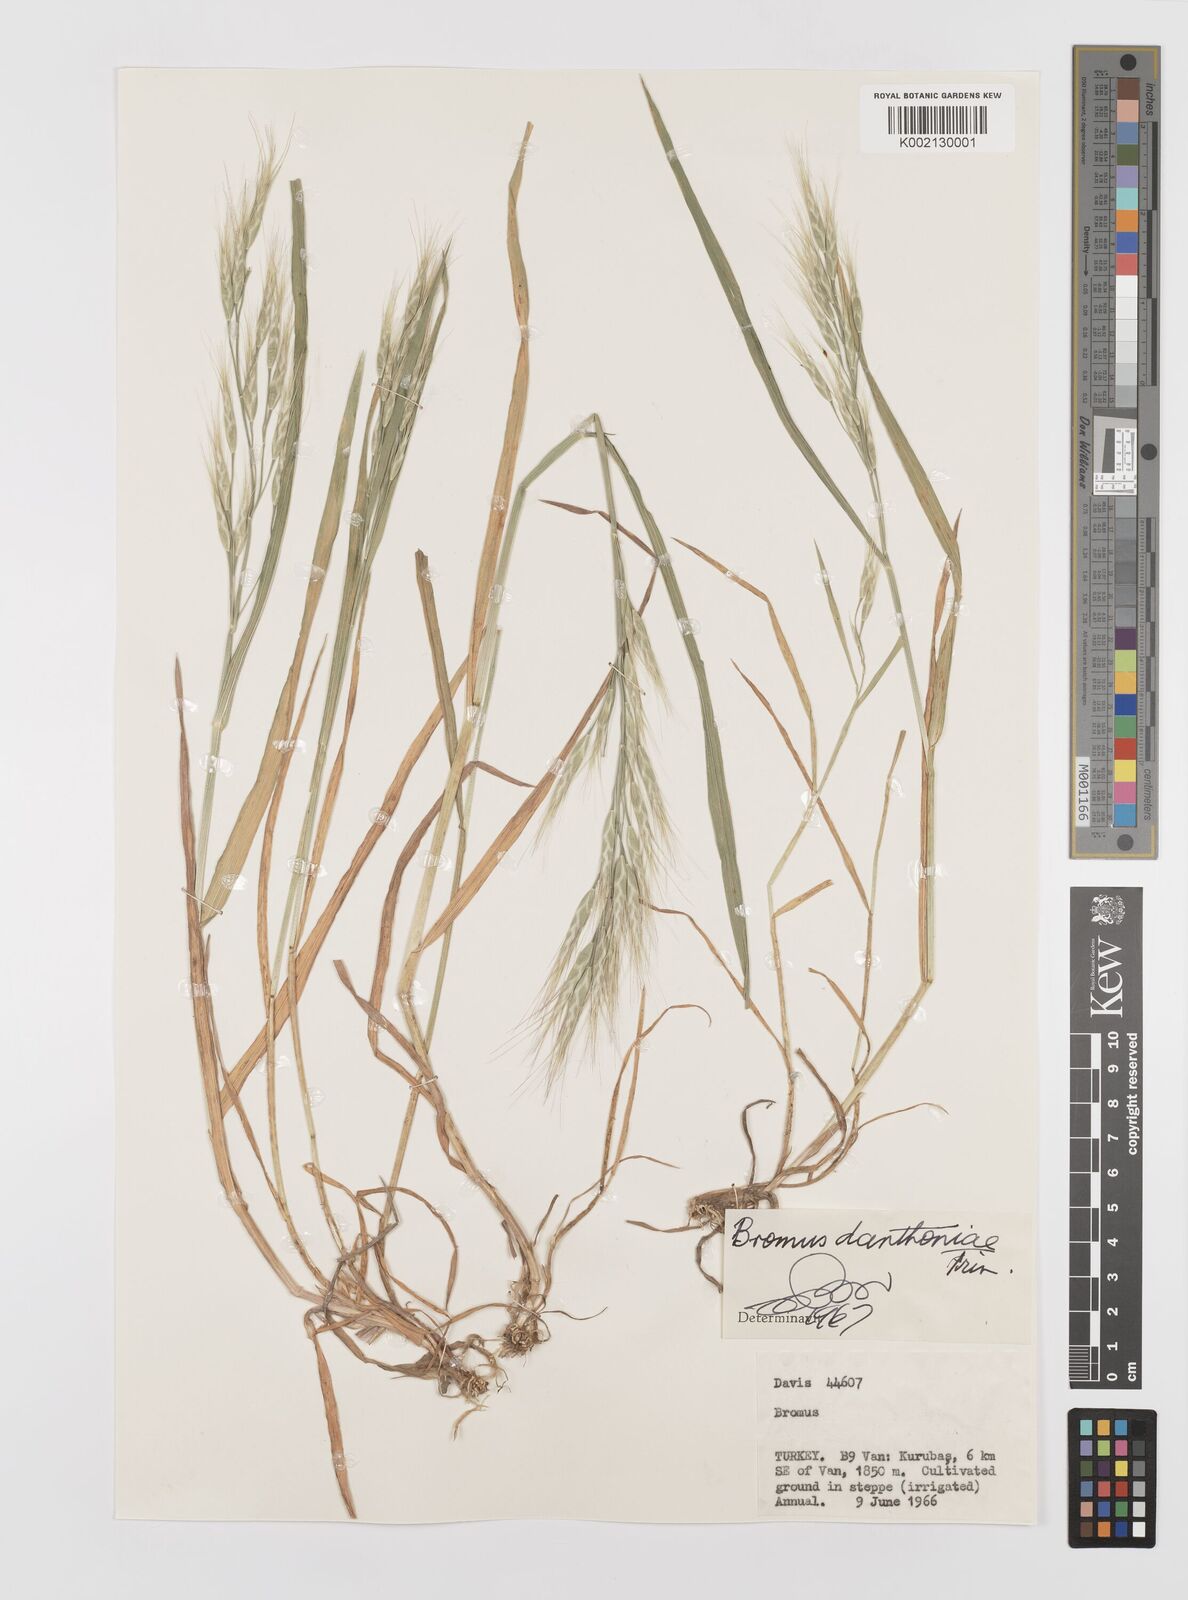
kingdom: Plantae
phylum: Tracheophyta
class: Liliopsida
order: Poales
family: Poaceae
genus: Bromus
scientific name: Bromus danthoniae
